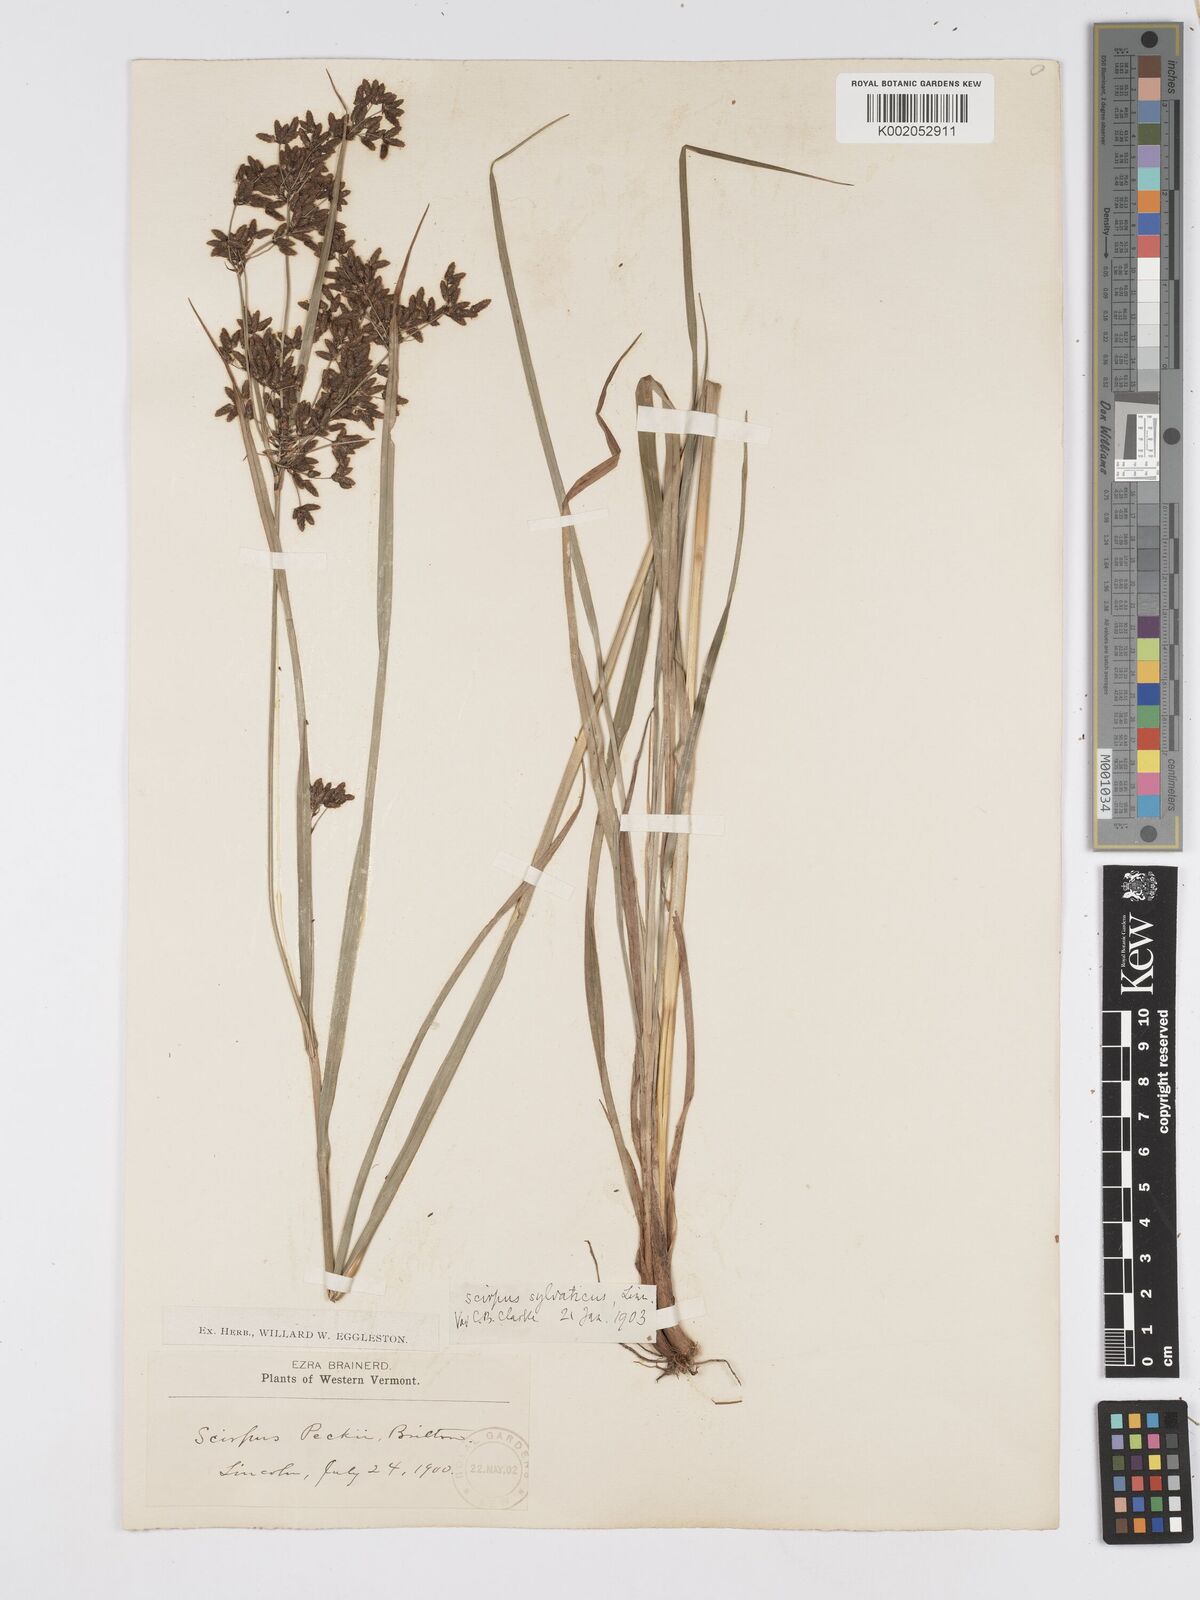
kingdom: Plantae
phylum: Tracheophyta
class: Liliopsida
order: Poales
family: Cyperaceae
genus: Scirpus
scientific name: Scirpus sylvaticus
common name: Wood club-rush
